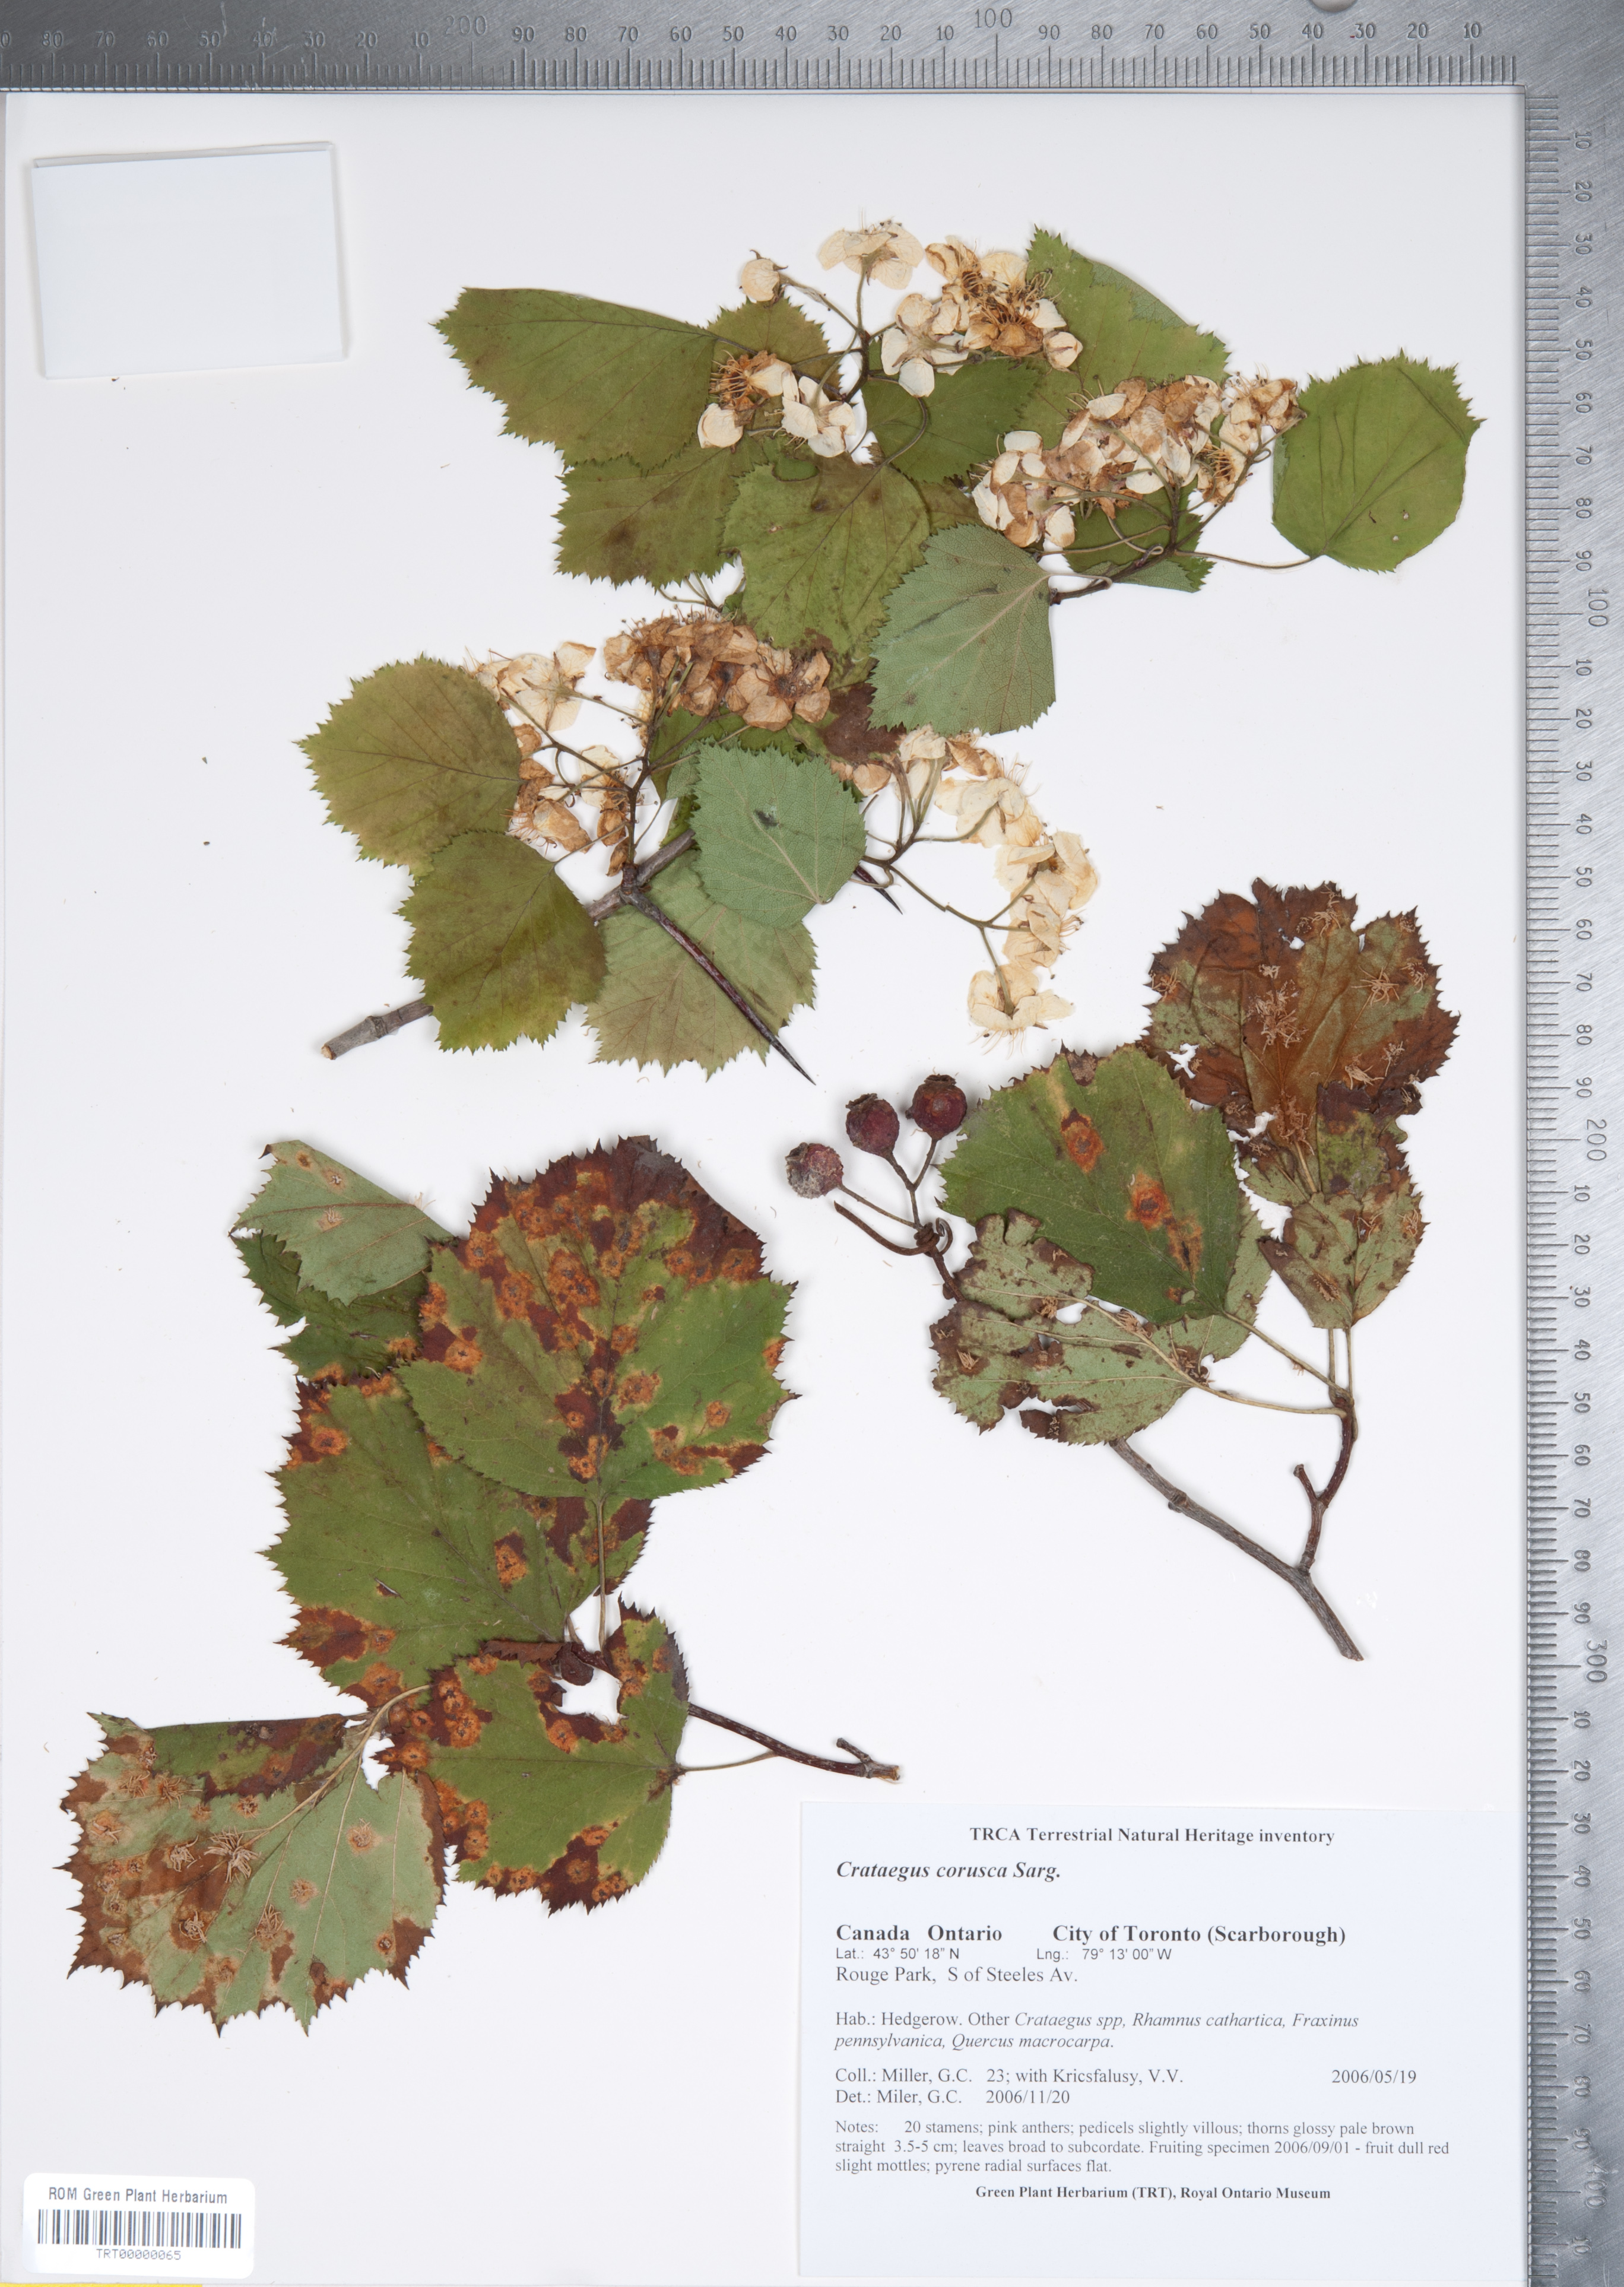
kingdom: Plantae
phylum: Tracheophyta
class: Magnoliopsida
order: Rosales
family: Rosaceae
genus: Crataegus
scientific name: Crataegus corusca
